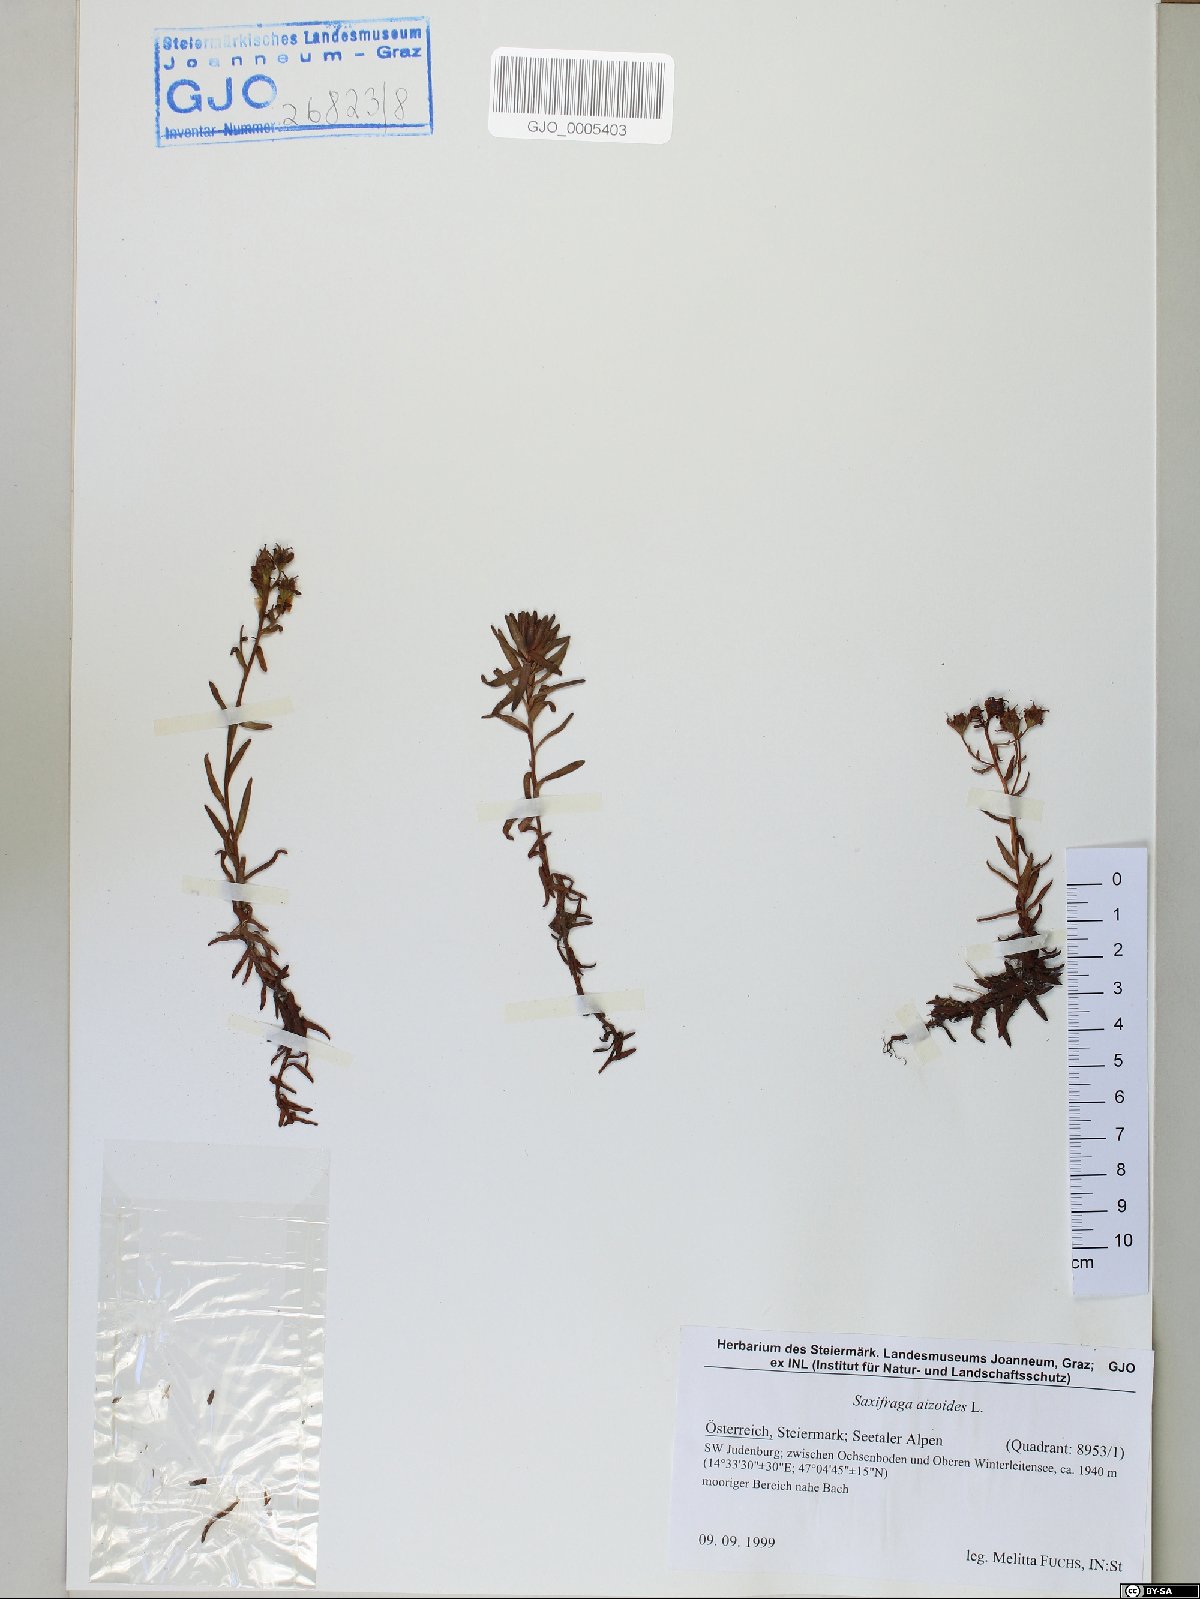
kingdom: Plantae
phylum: Tracheophyta
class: Magnoliopsida
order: Saxifragales
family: Saxifragaceae
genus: Saxifraga
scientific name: Saxifraga aizoides
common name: Yellow mountain saxifrage
